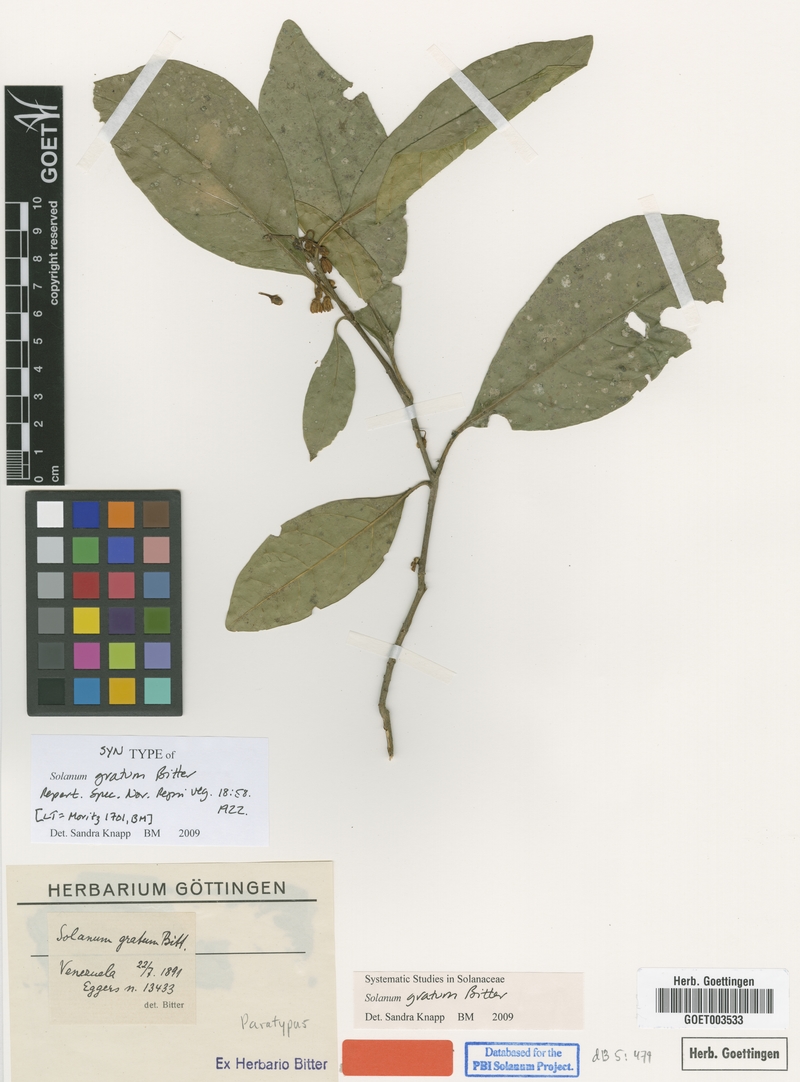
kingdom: Plantae
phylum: Tracheophyta
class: Magnoliopsida
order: Solanales
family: Solanaceae
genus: Solanum
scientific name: Solanum gratum
